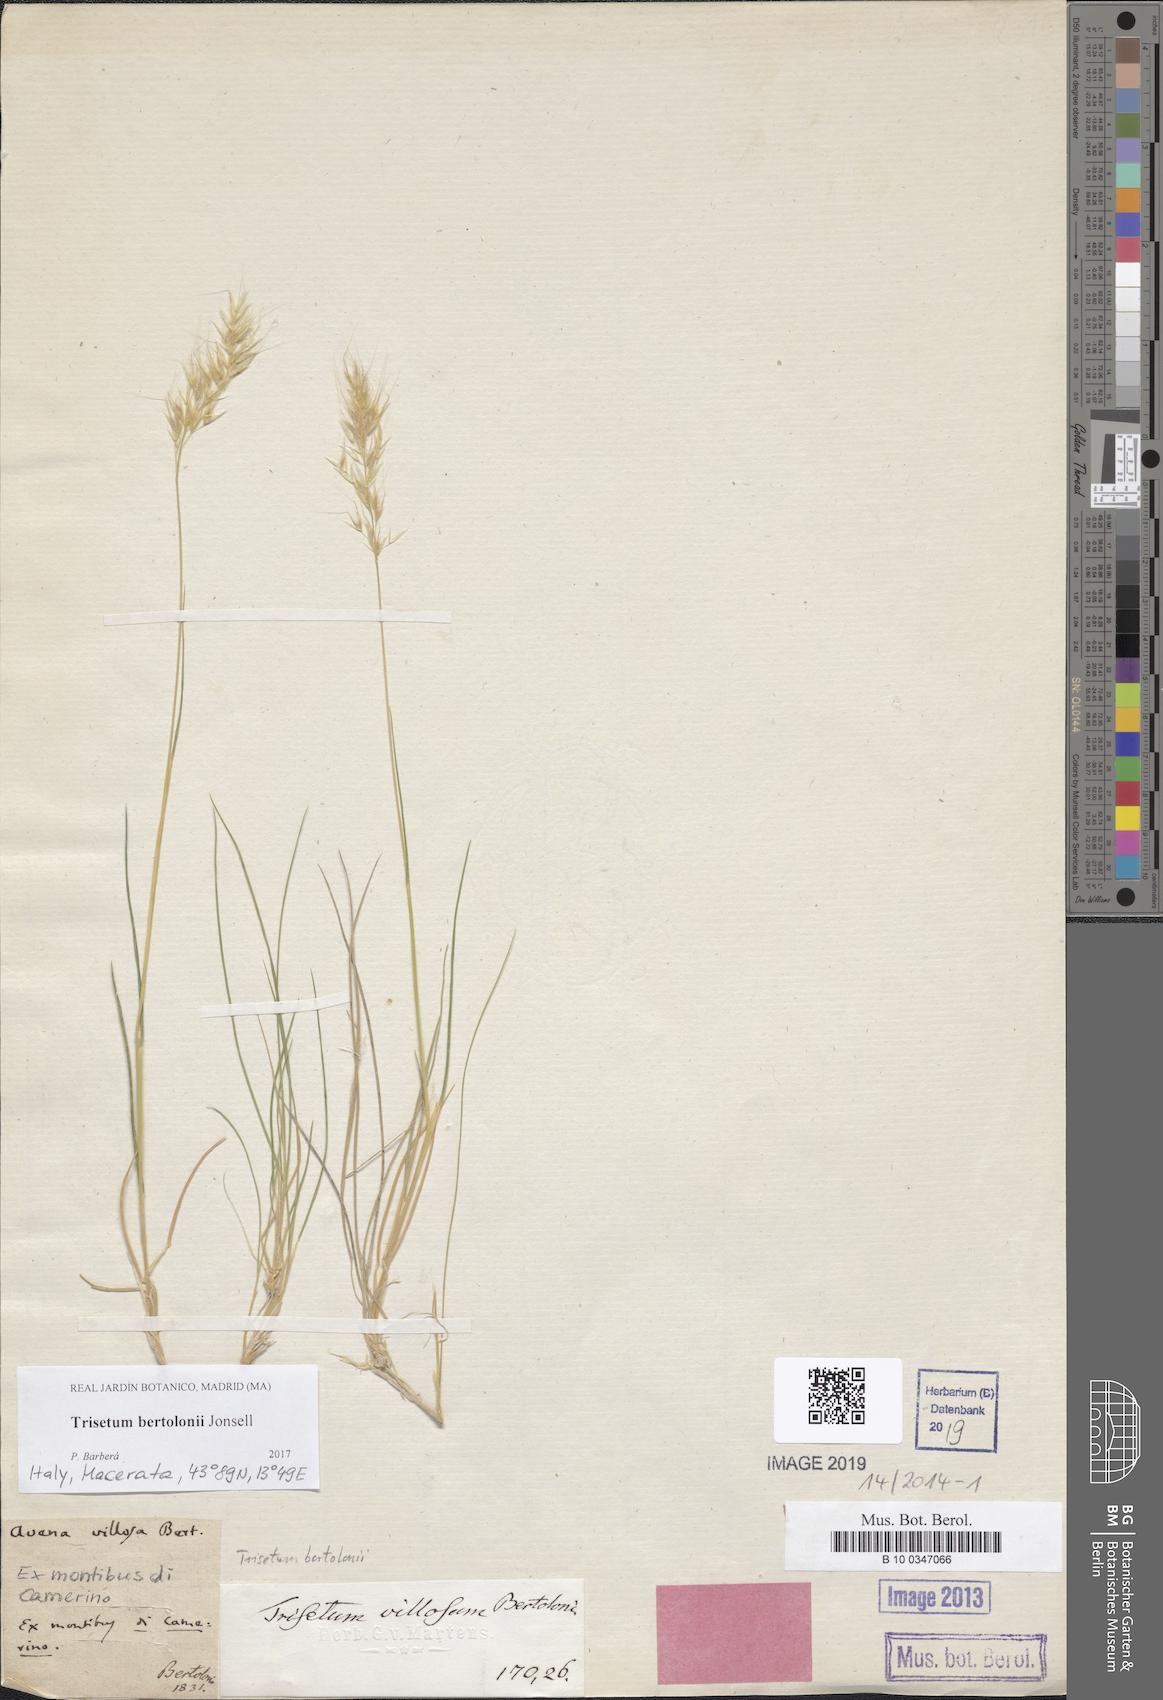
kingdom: Plantae
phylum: Tracheophyta
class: Liliopsida
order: Poales
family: Poaceae
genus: Trisetum
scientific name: Trisetum bertolonii
